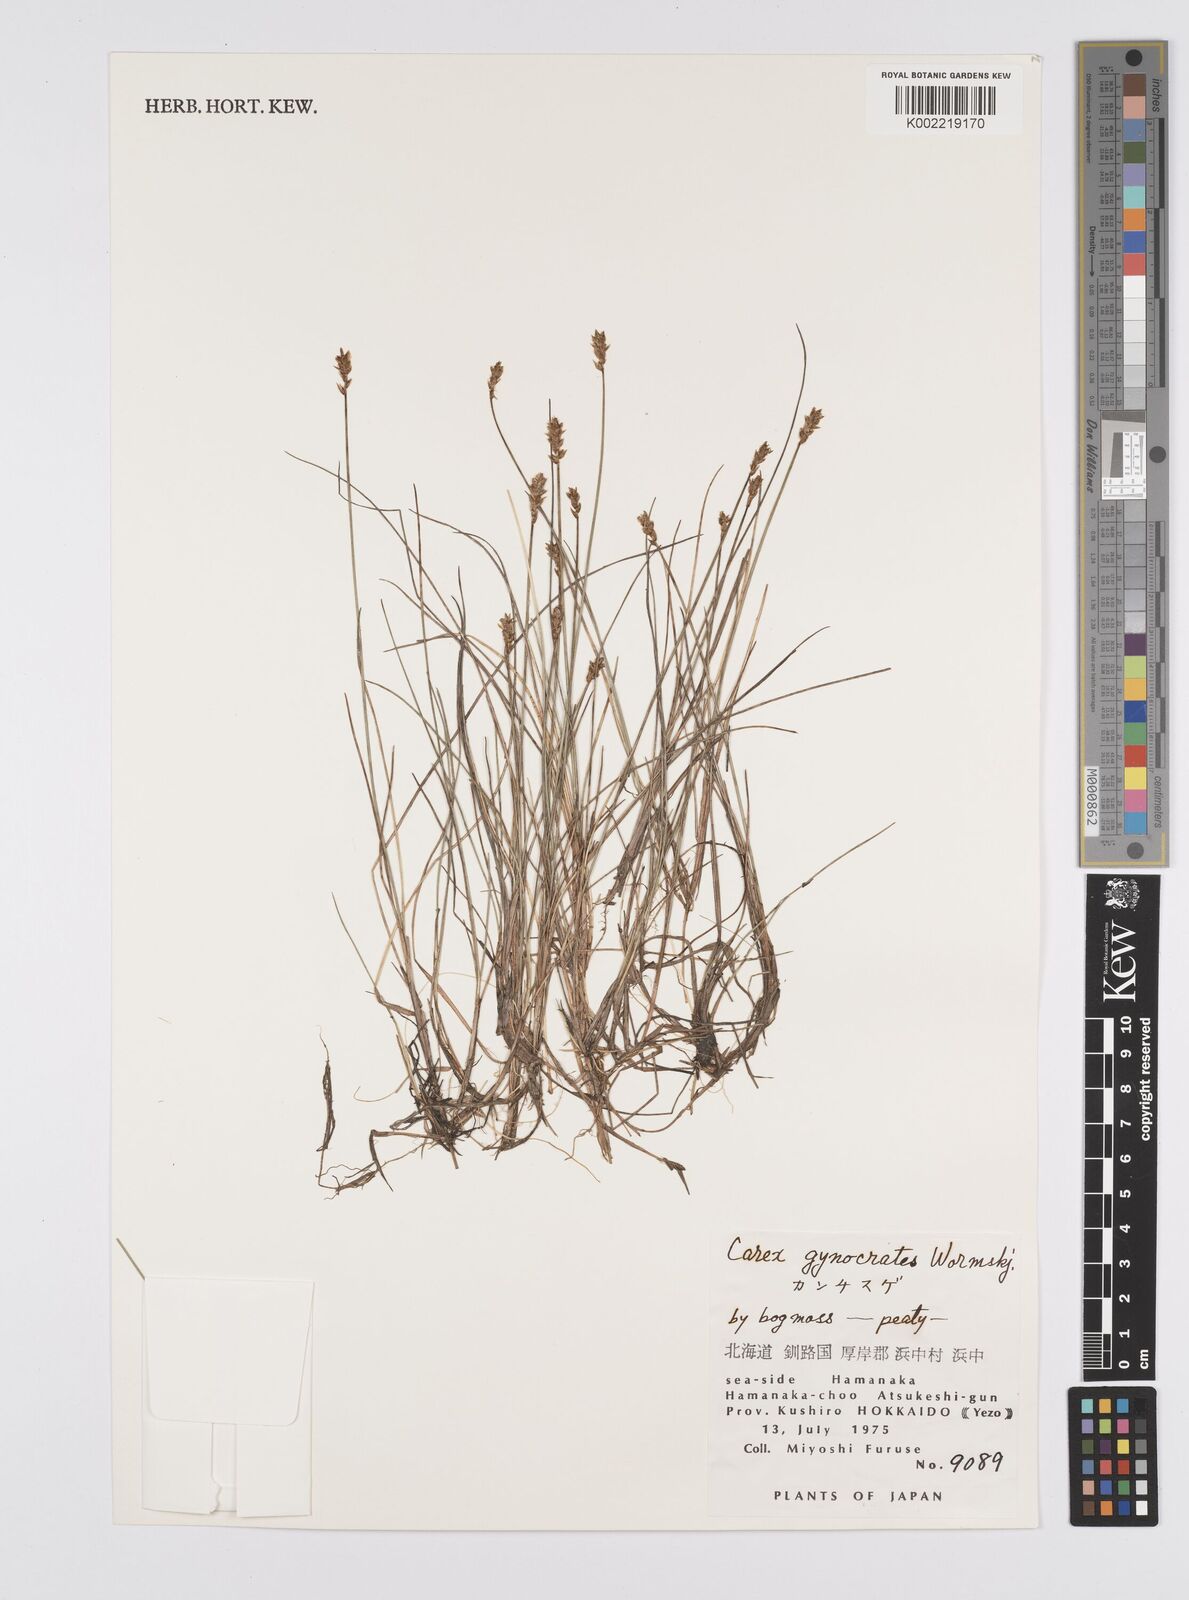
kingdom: Plantae
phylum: Tracheophyta
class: Liliopsida
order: Poales
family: Cyperaceae
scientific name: Cyperaceae
